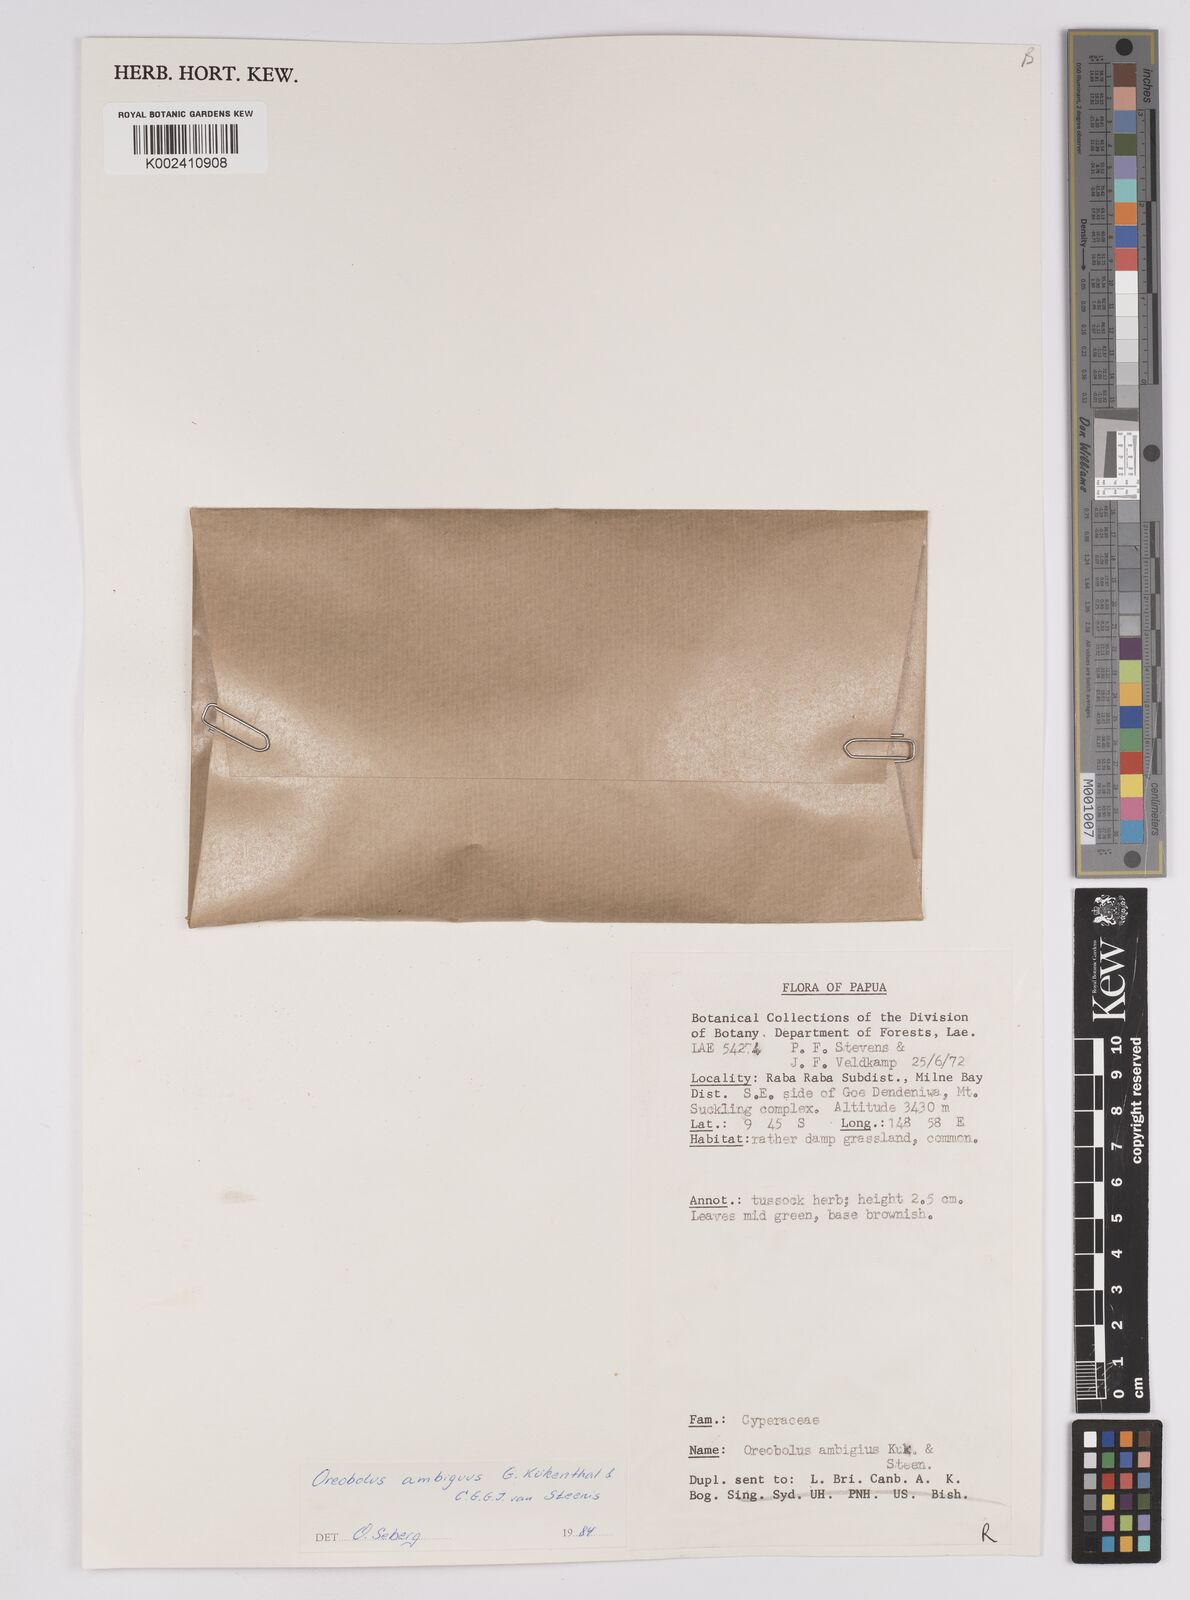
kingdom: Plantae
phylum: Tracheophyta
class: Liliopsida
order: Poales
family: Cyperaceae
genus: Oreobolus
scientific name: Oreobolus ambiguus
